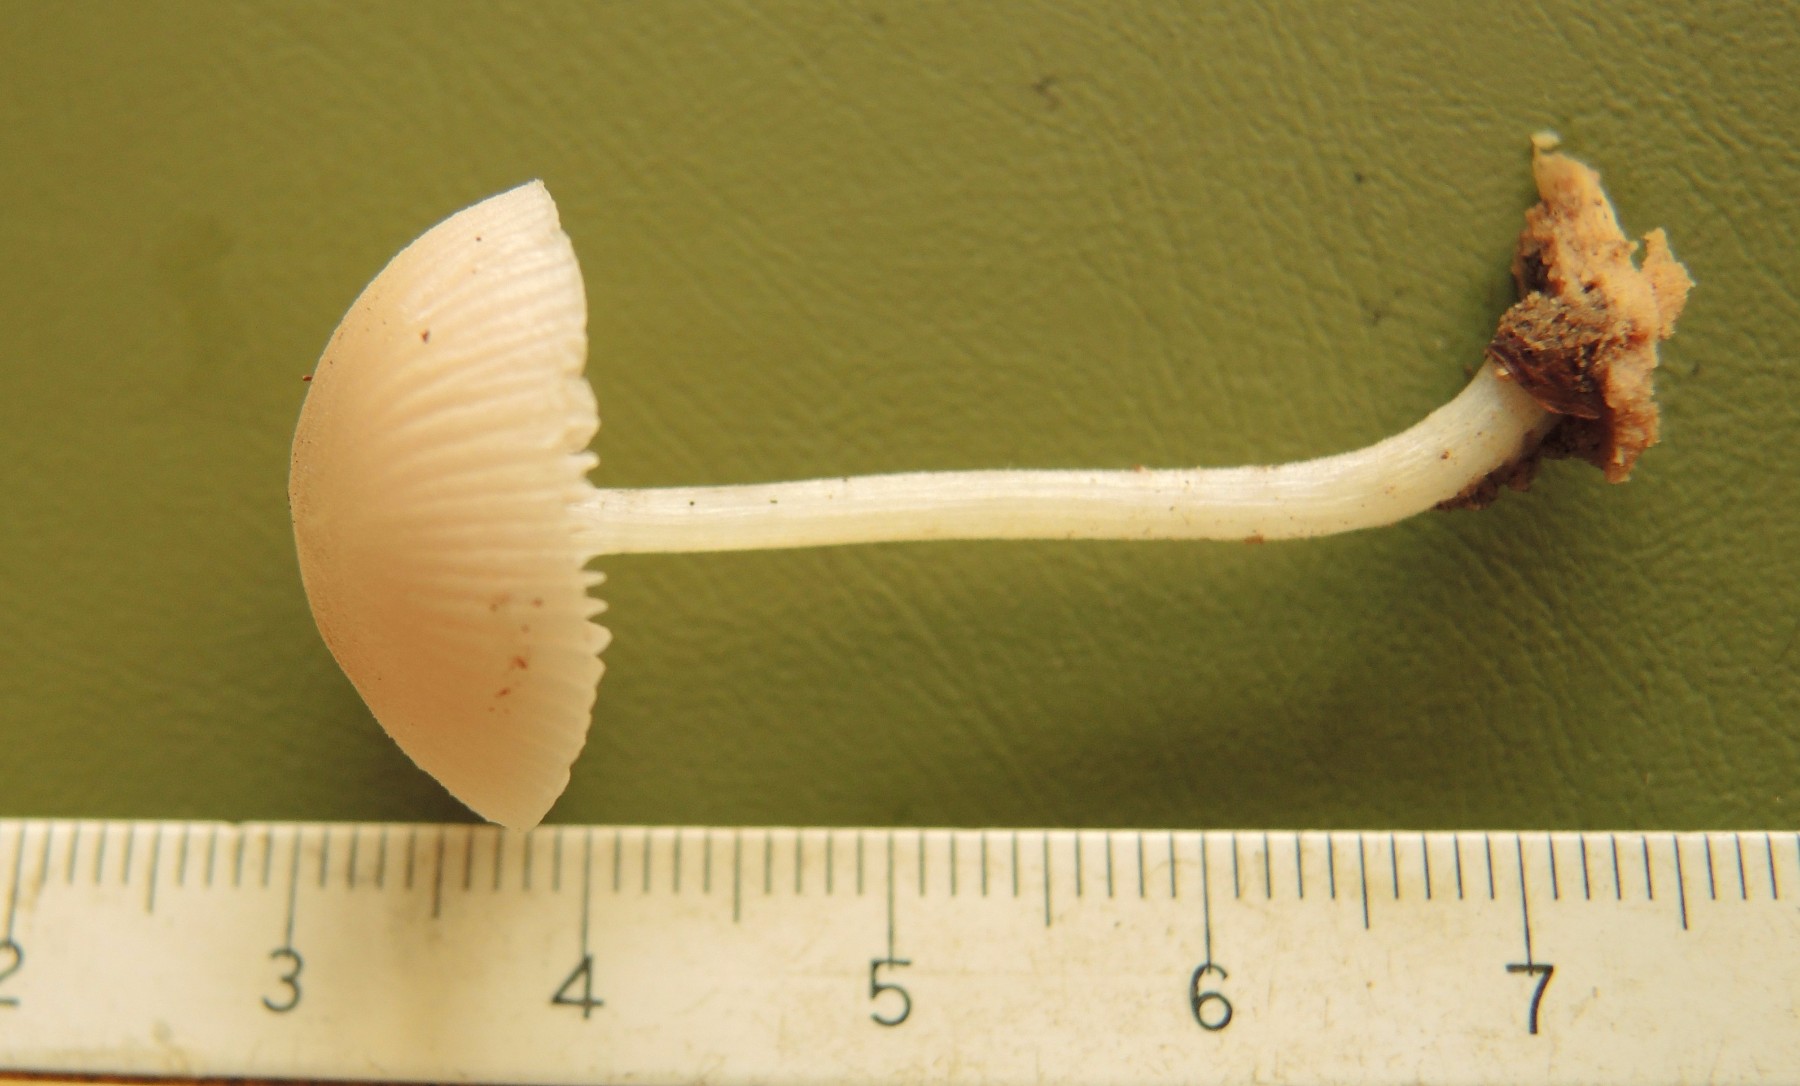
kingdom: Fungi
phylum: Basidiomycota
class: Agaricomycetes
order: Agaricales
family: Pluteaceae
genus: Pluteus
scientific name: Pluteus semibulbosus
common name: knoldet skærmhat
